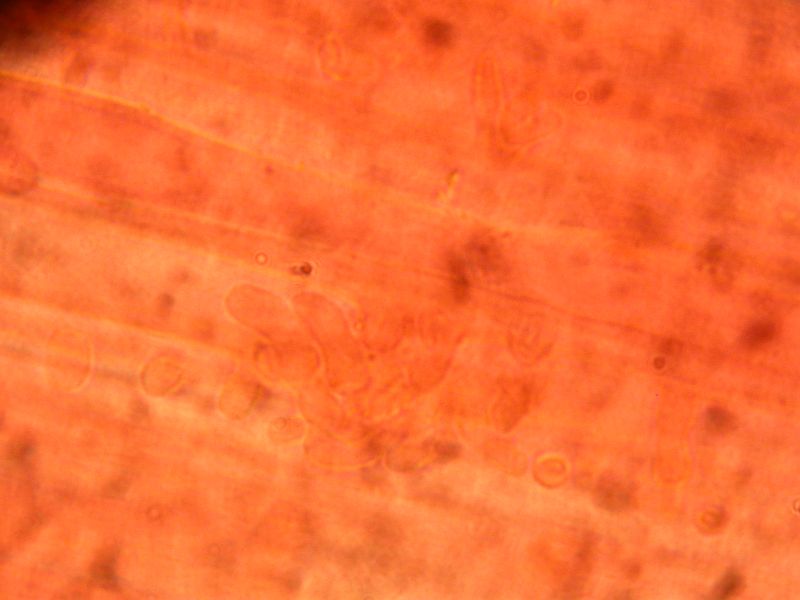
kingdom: Fungi
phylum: Basidiomycota
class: Agaricomycetes
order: Agaricales
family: Mycenaceae
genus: Mycena
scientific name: Mycena leptocephala
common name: klor-huesvamp
